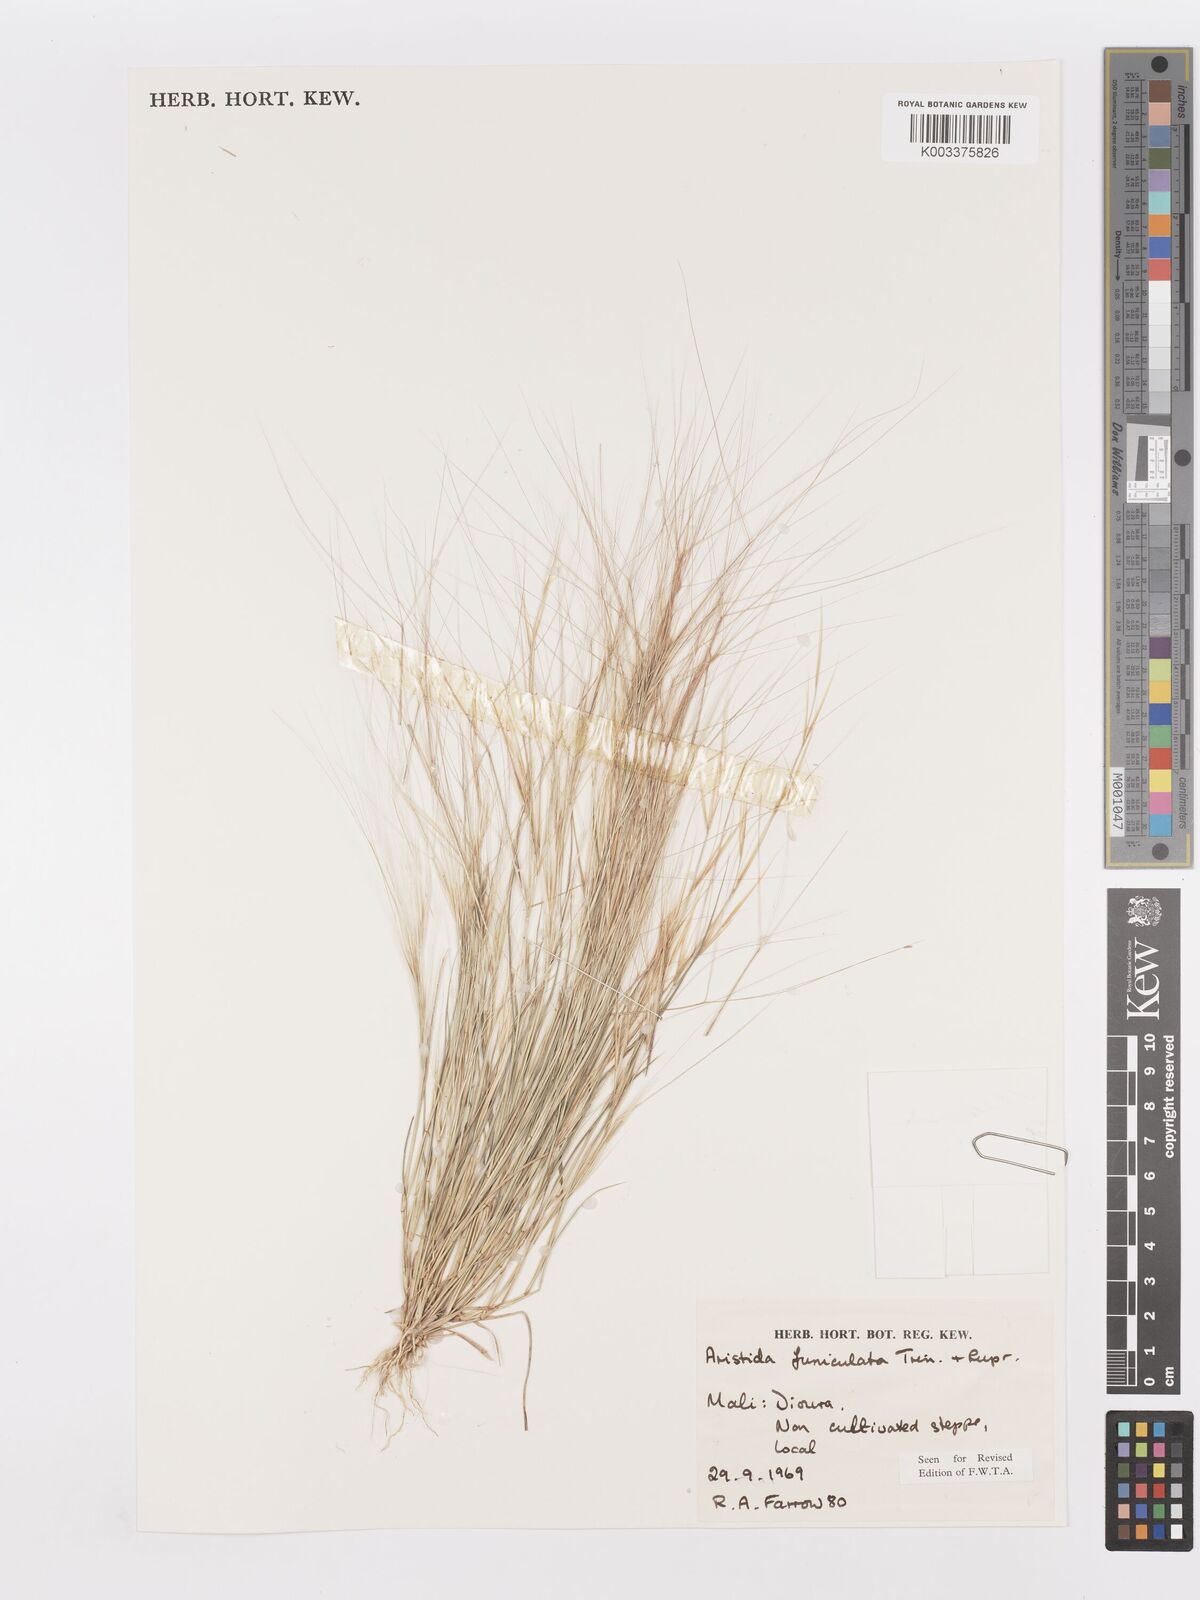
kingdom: Plantae
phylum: Tracheophyta
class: Liliopsida
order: Poales
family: Poaceae
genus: Aristida
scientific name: Aristida funiculata
